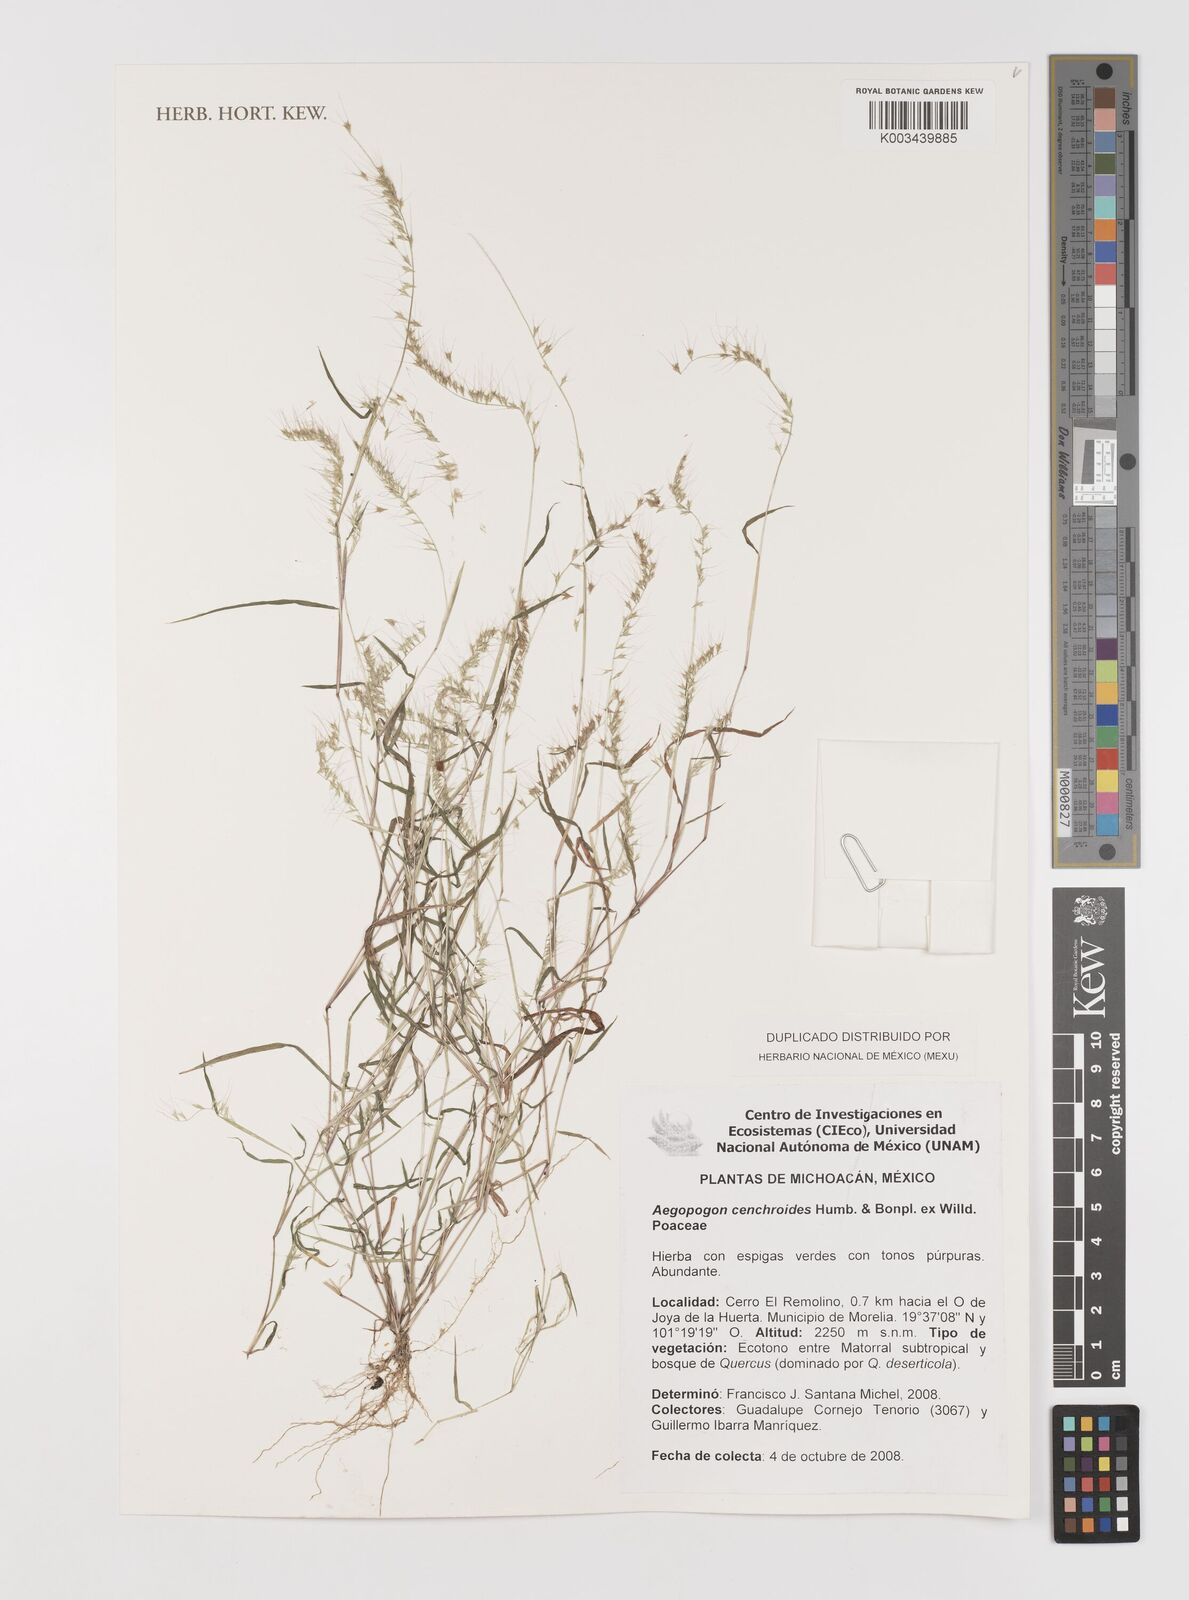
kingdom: Plantae
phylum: Tracheophyta
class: Liliopsida
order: Poales
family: Poaceae
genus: Muhlenbergia
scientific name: Muhlenbergia cenchroides
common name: Relaxgrass
